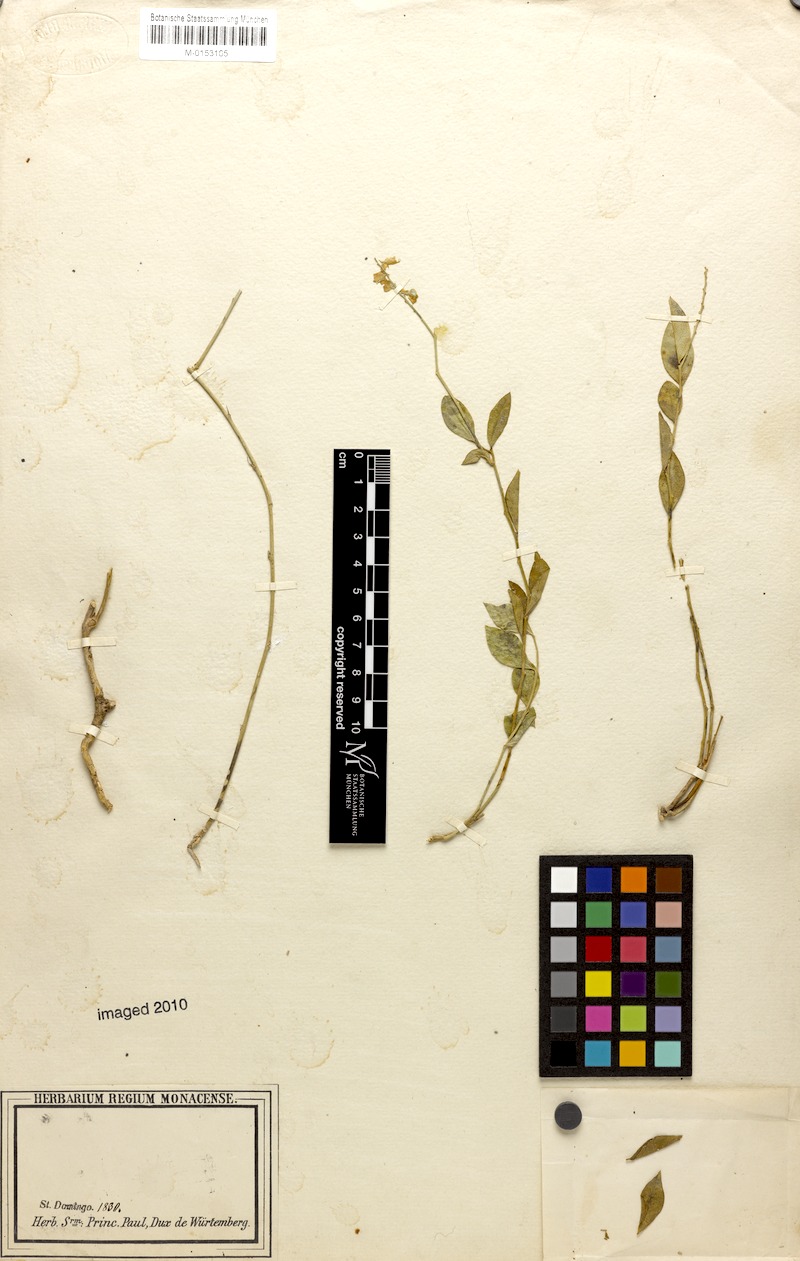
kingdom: Plantae
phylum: Tracheophyta
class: Magnoliopsida
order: Fabales
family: Polygalaceae
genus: Hebecarpa
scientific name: Hebecarpa americana
